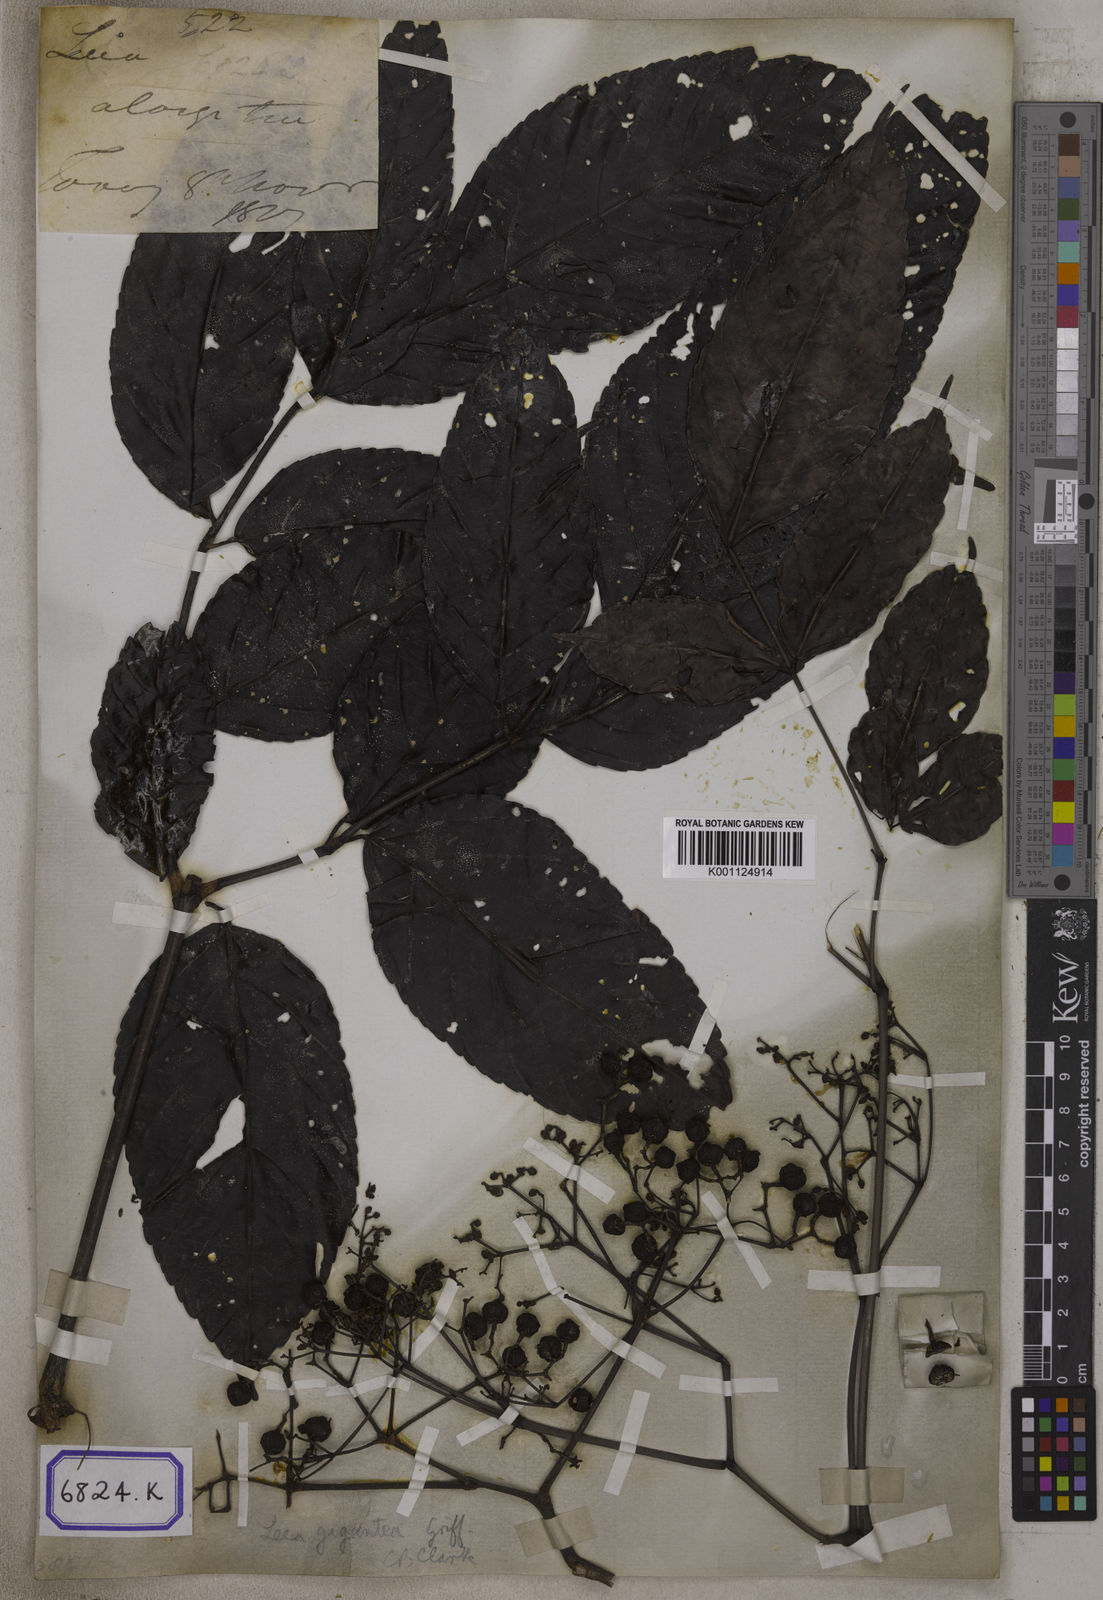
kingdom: Plantae
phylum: Tracheophyta
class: Magnoliopsida
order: Vitales
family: Vitaceae
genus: Leea
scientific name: Leea
